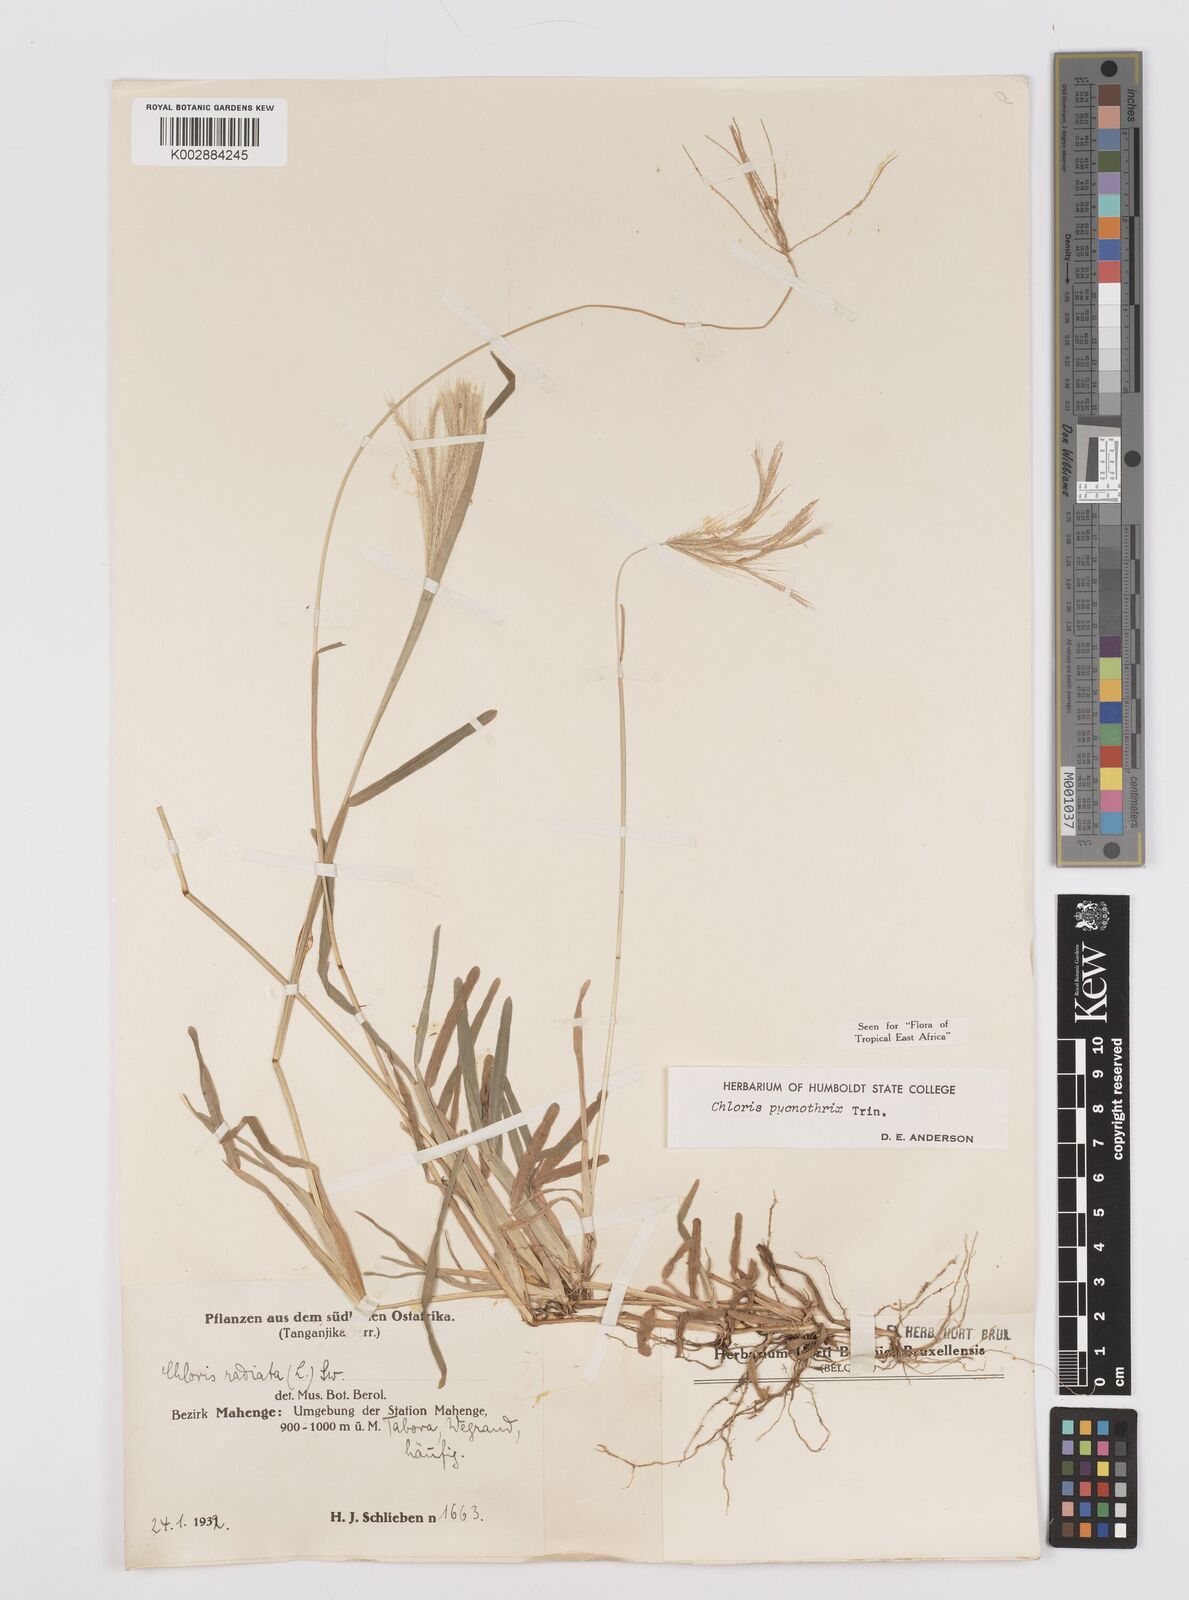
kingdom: Plantae
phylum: Tracheophyta
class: Liliopsida
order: Poales
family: Poaceae
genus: Chloris
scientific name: Chloris pycnothrix
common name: Spiderweb chloris
